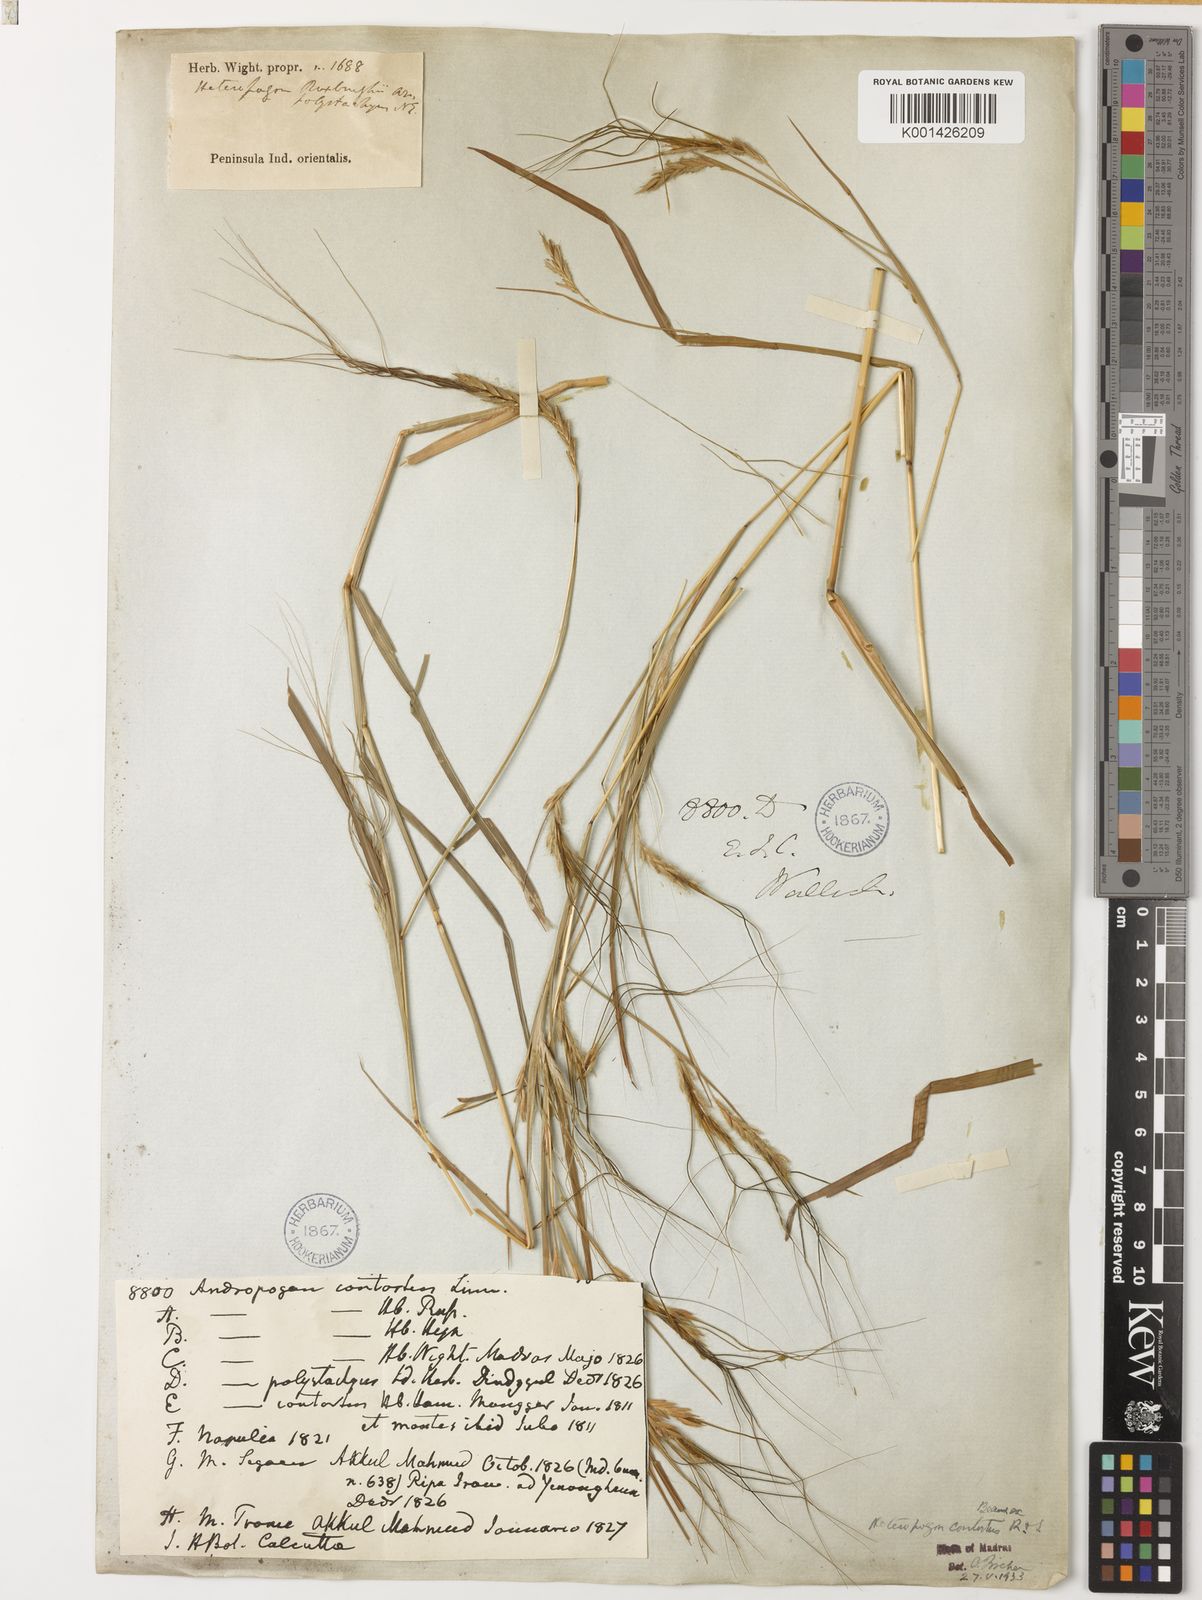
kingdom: Plantae
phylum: Tracheophyta
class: Liliopsida
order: Poales
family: Poaceae
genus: Heteropogon
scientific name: Heteropogon contortus
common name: Tanglehead
